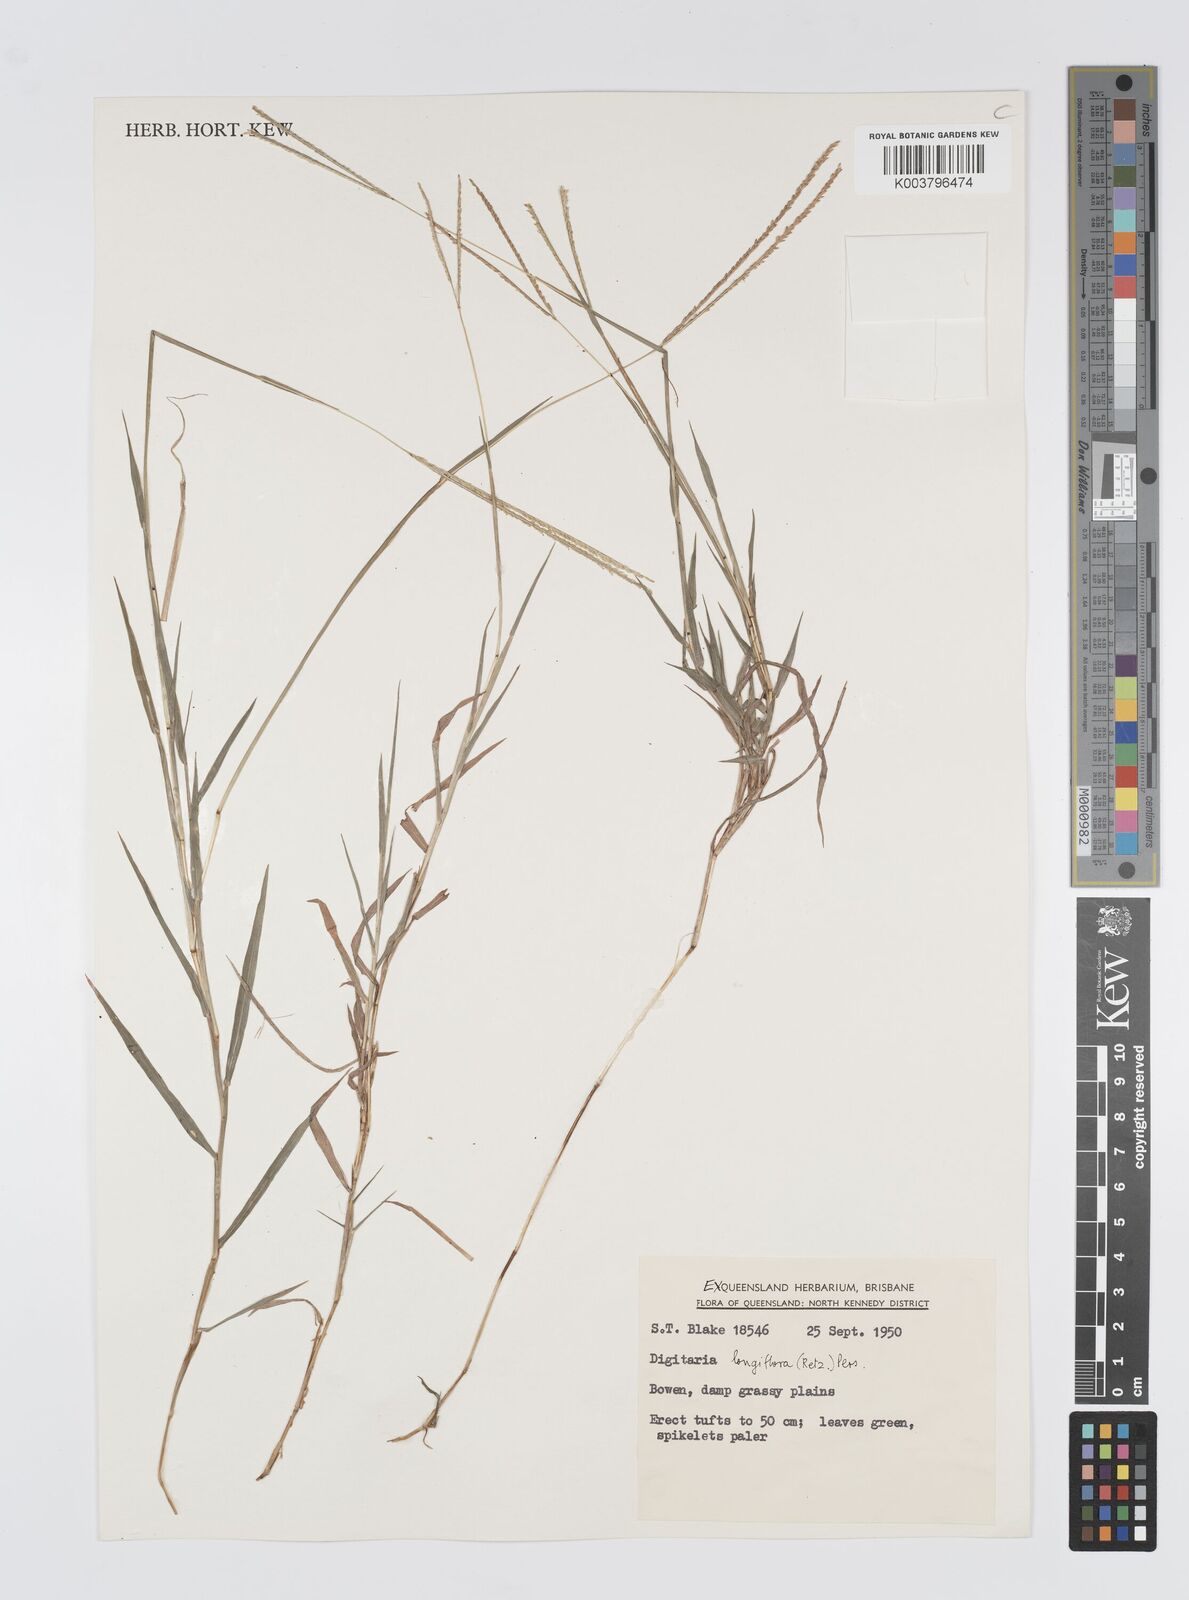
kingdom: Plantae
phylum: Tracheophyta
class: Liliopsida
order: Poales
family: Poaceae
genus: Digitaria
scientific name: Digitaria longiflora
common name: Wire crabgrass
